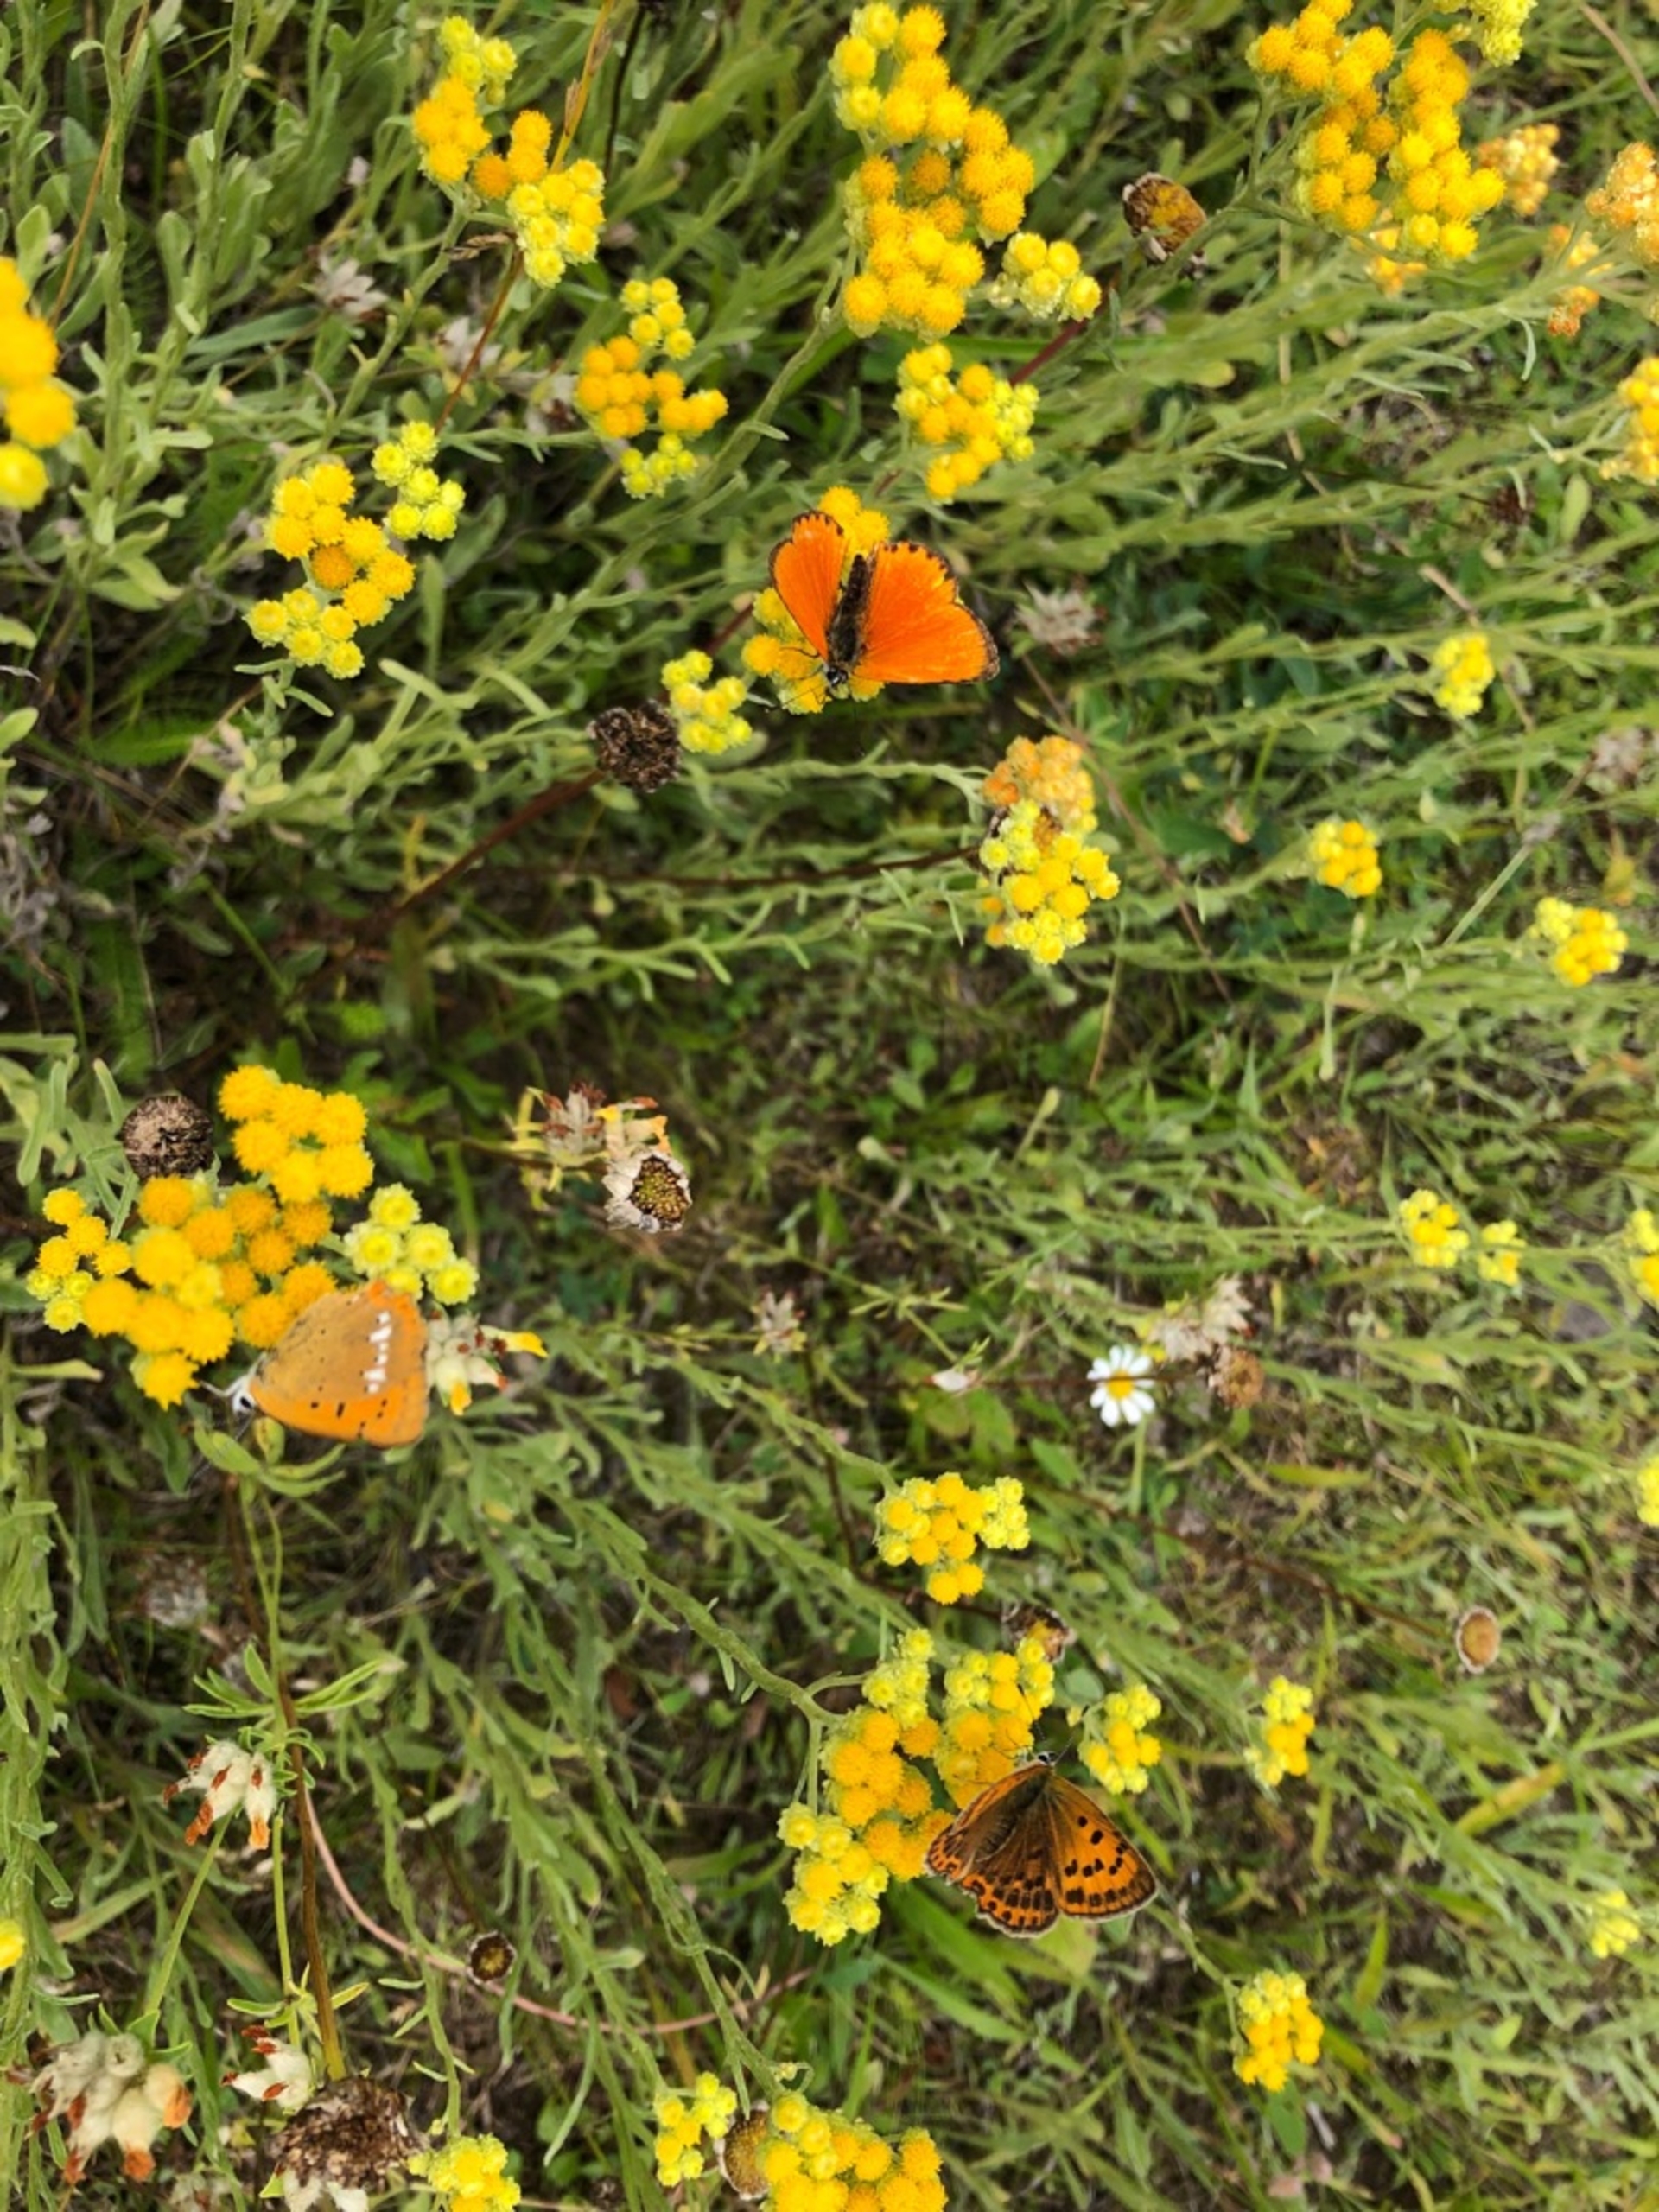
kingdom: Animalia
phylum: Arthropoda
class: Insecta
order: Lepidoptera
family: Lycaenidae
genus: Lycaena
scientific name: Lycaena virgaureae
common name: Dukatsommerfugl
